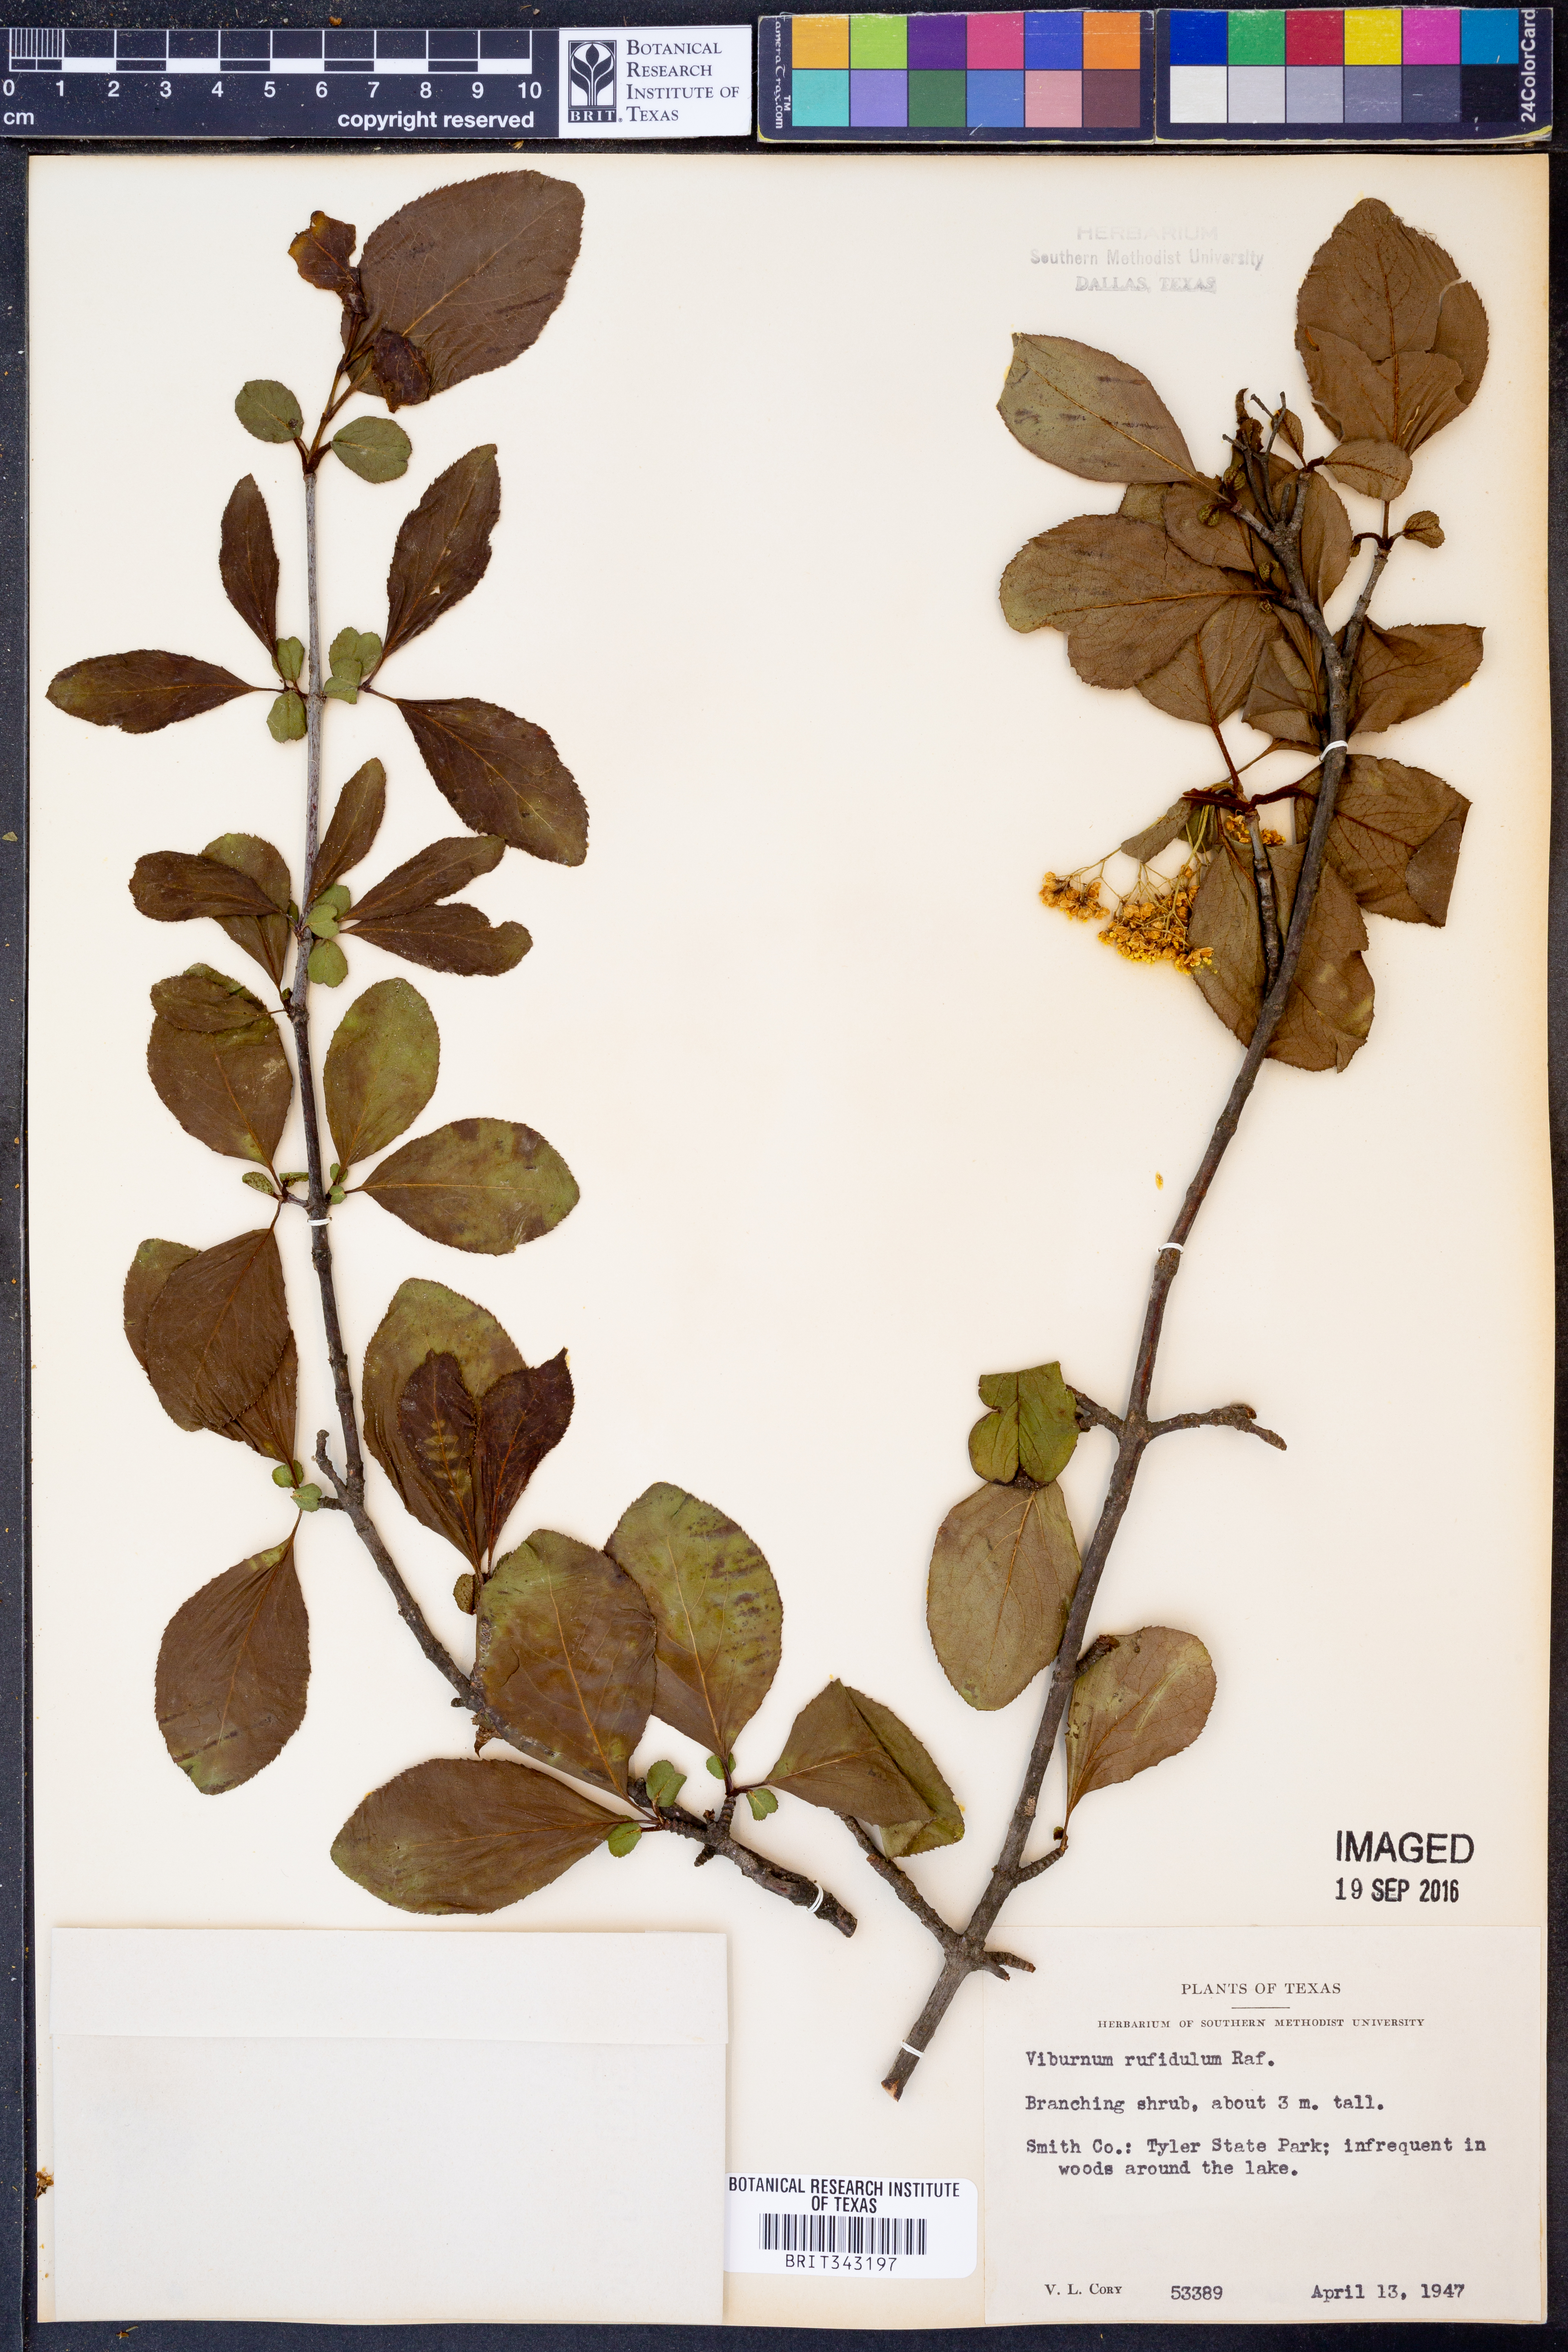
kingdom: Plantae
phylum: Tracheophyta
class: Magnoliopsida
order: Dipsacales
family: Viburnaceae
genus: Viburnum
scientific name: Viburnum rufidulum
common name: Blue haw
